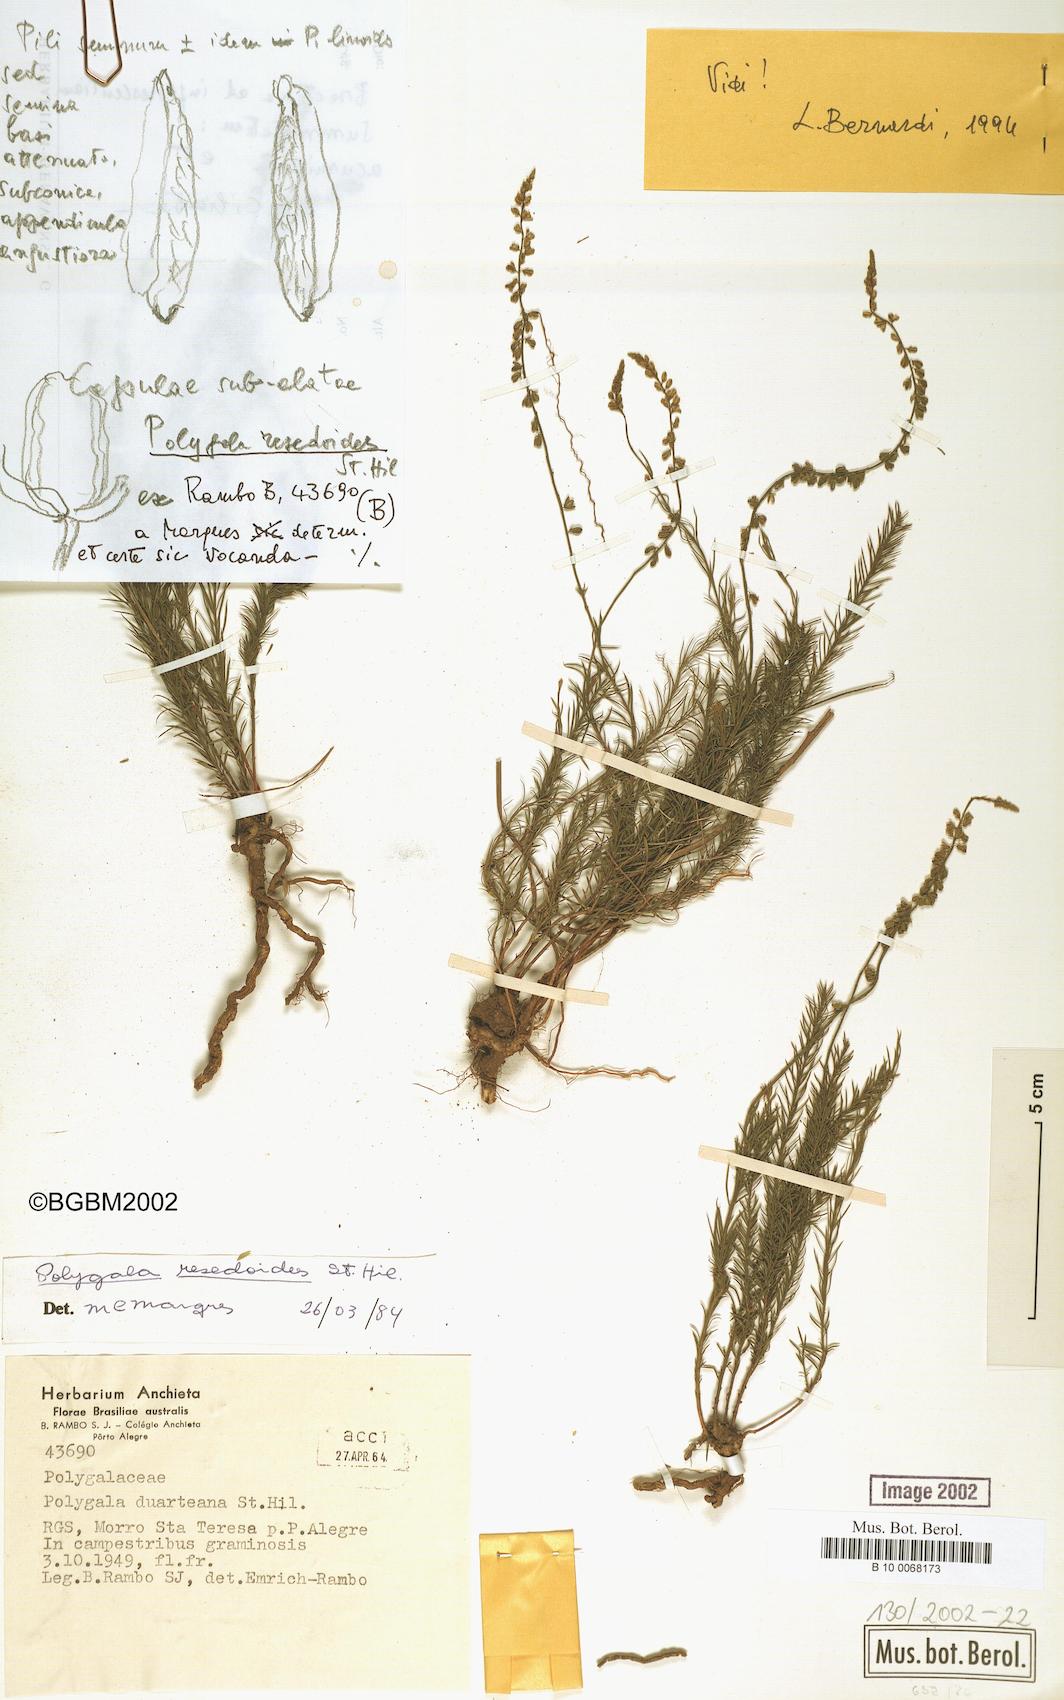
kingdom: Plantae
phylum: Tracheophyta
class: Magnoliopsida
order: Fabales
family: Polygalaceae
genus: Polygala
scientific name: Polygala resedoides
